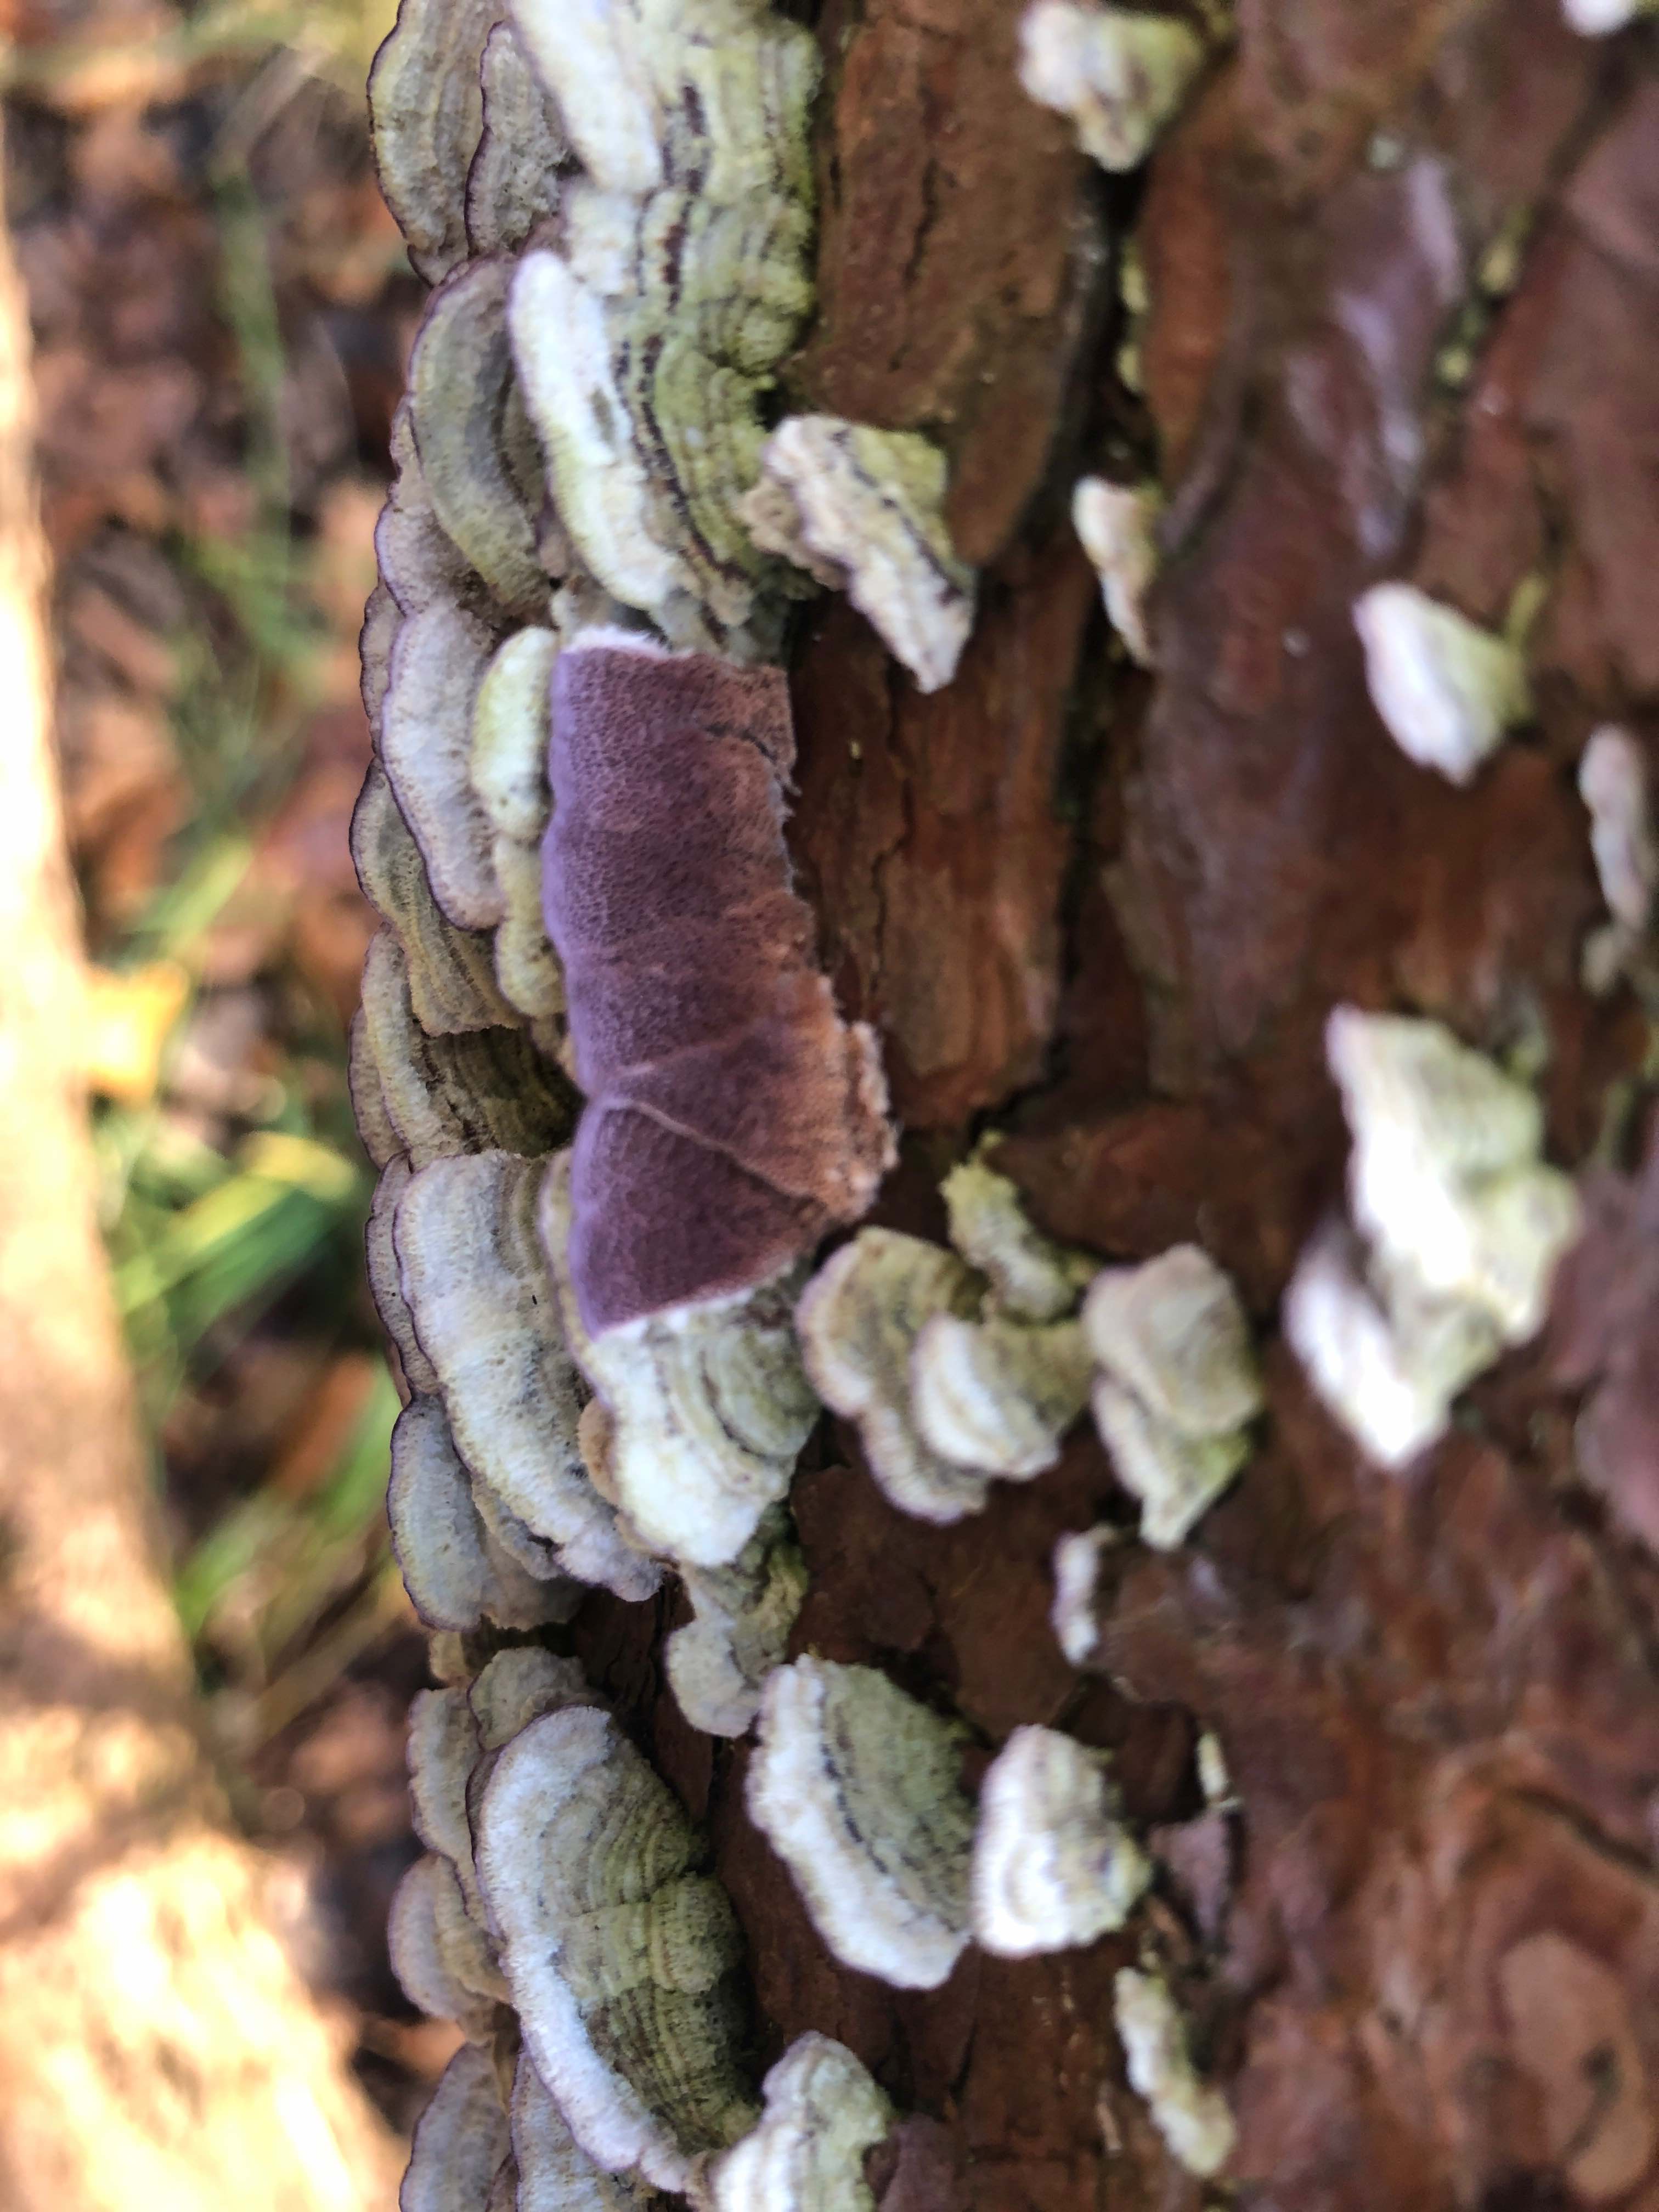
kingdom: Fungi
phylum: Basidiomycota
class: Agaricomycetes
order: Hymenochaetales
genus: Trichaptum
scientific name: Trichaptum abietinum
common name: almindelig violporesvamp
